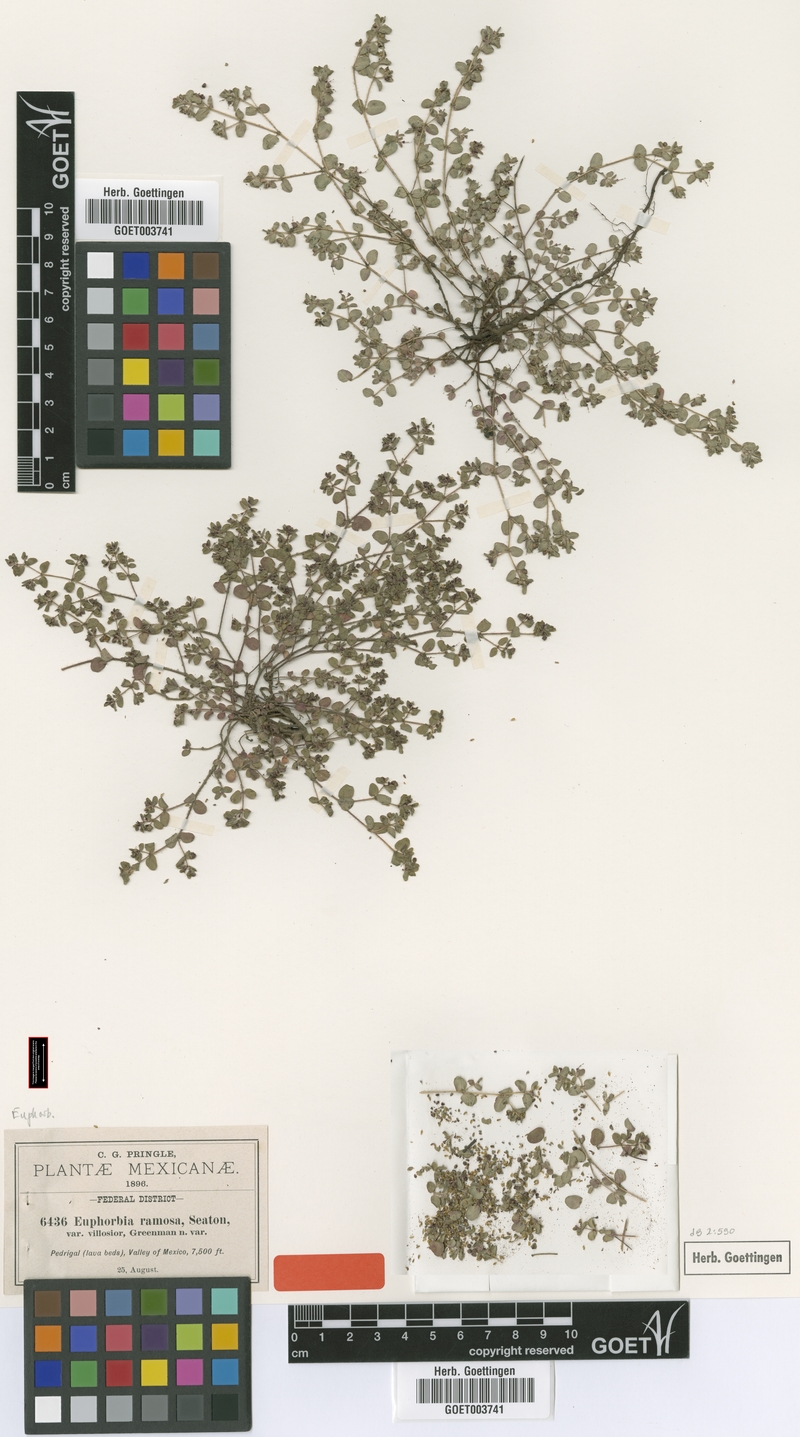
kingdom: Plantae
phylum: Tracheophyta
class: Magnoliopsida
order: Malpighiales
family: Euphorbiaceae
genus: Euphorbia
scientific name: Euphorbia prostrata
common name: Prostrate sandmat
